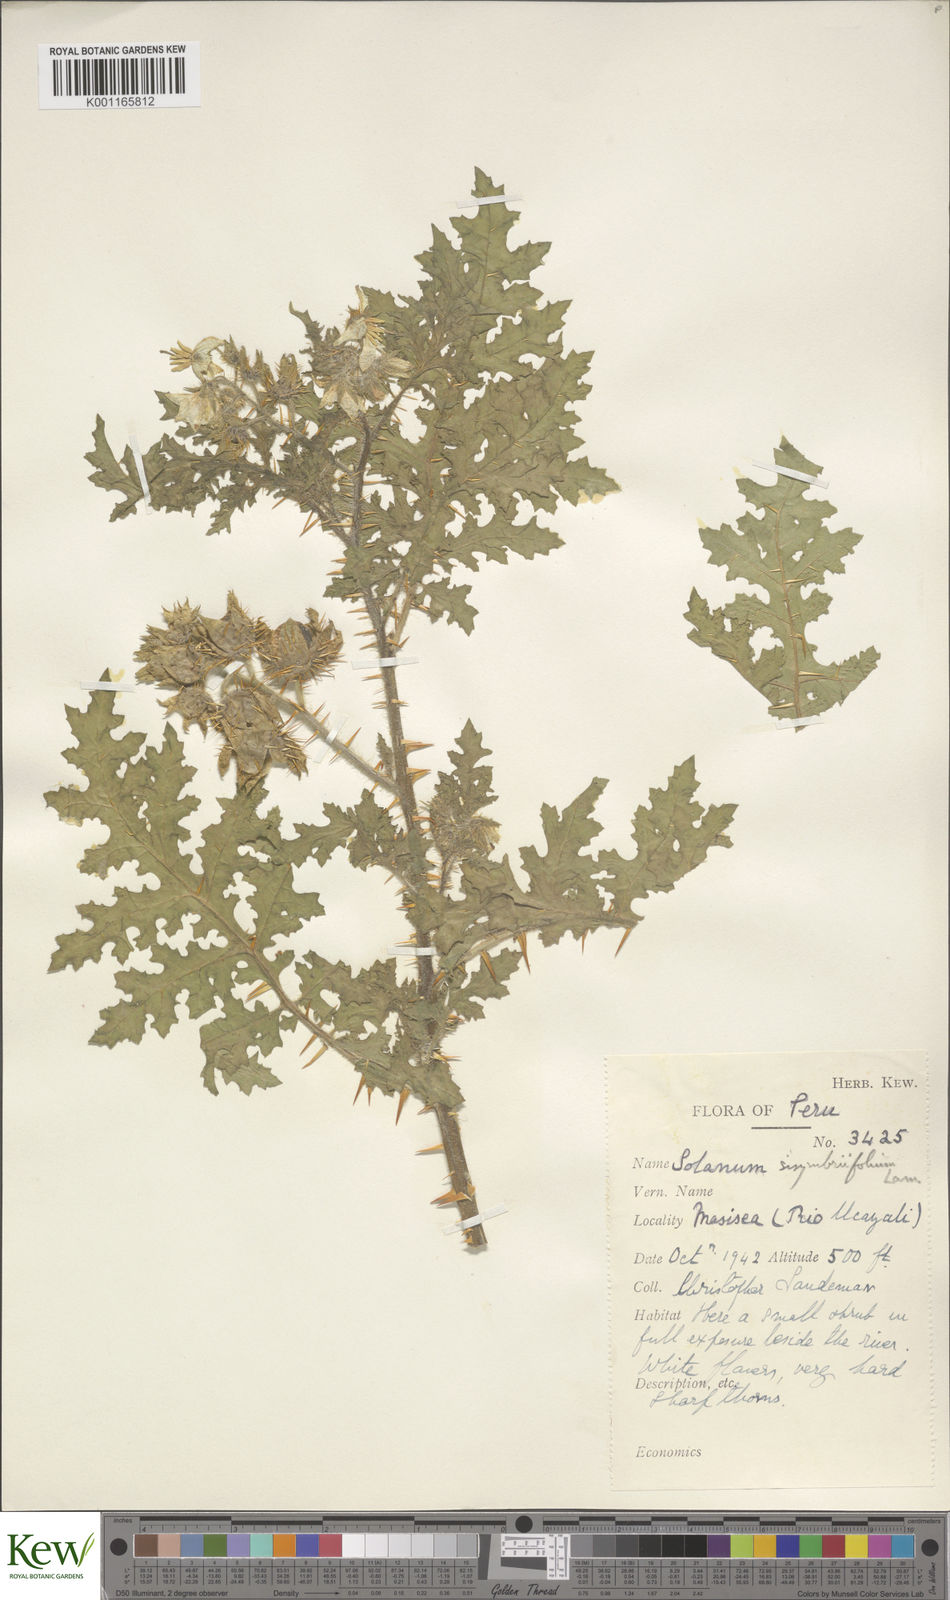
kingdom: Plantae
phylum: Tracheophyta
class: Magnoliopsida
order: Solanales
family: Solanaceae
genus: Solanum
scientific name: Solanum sisymbriifolium
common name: Red buffalo-bur
